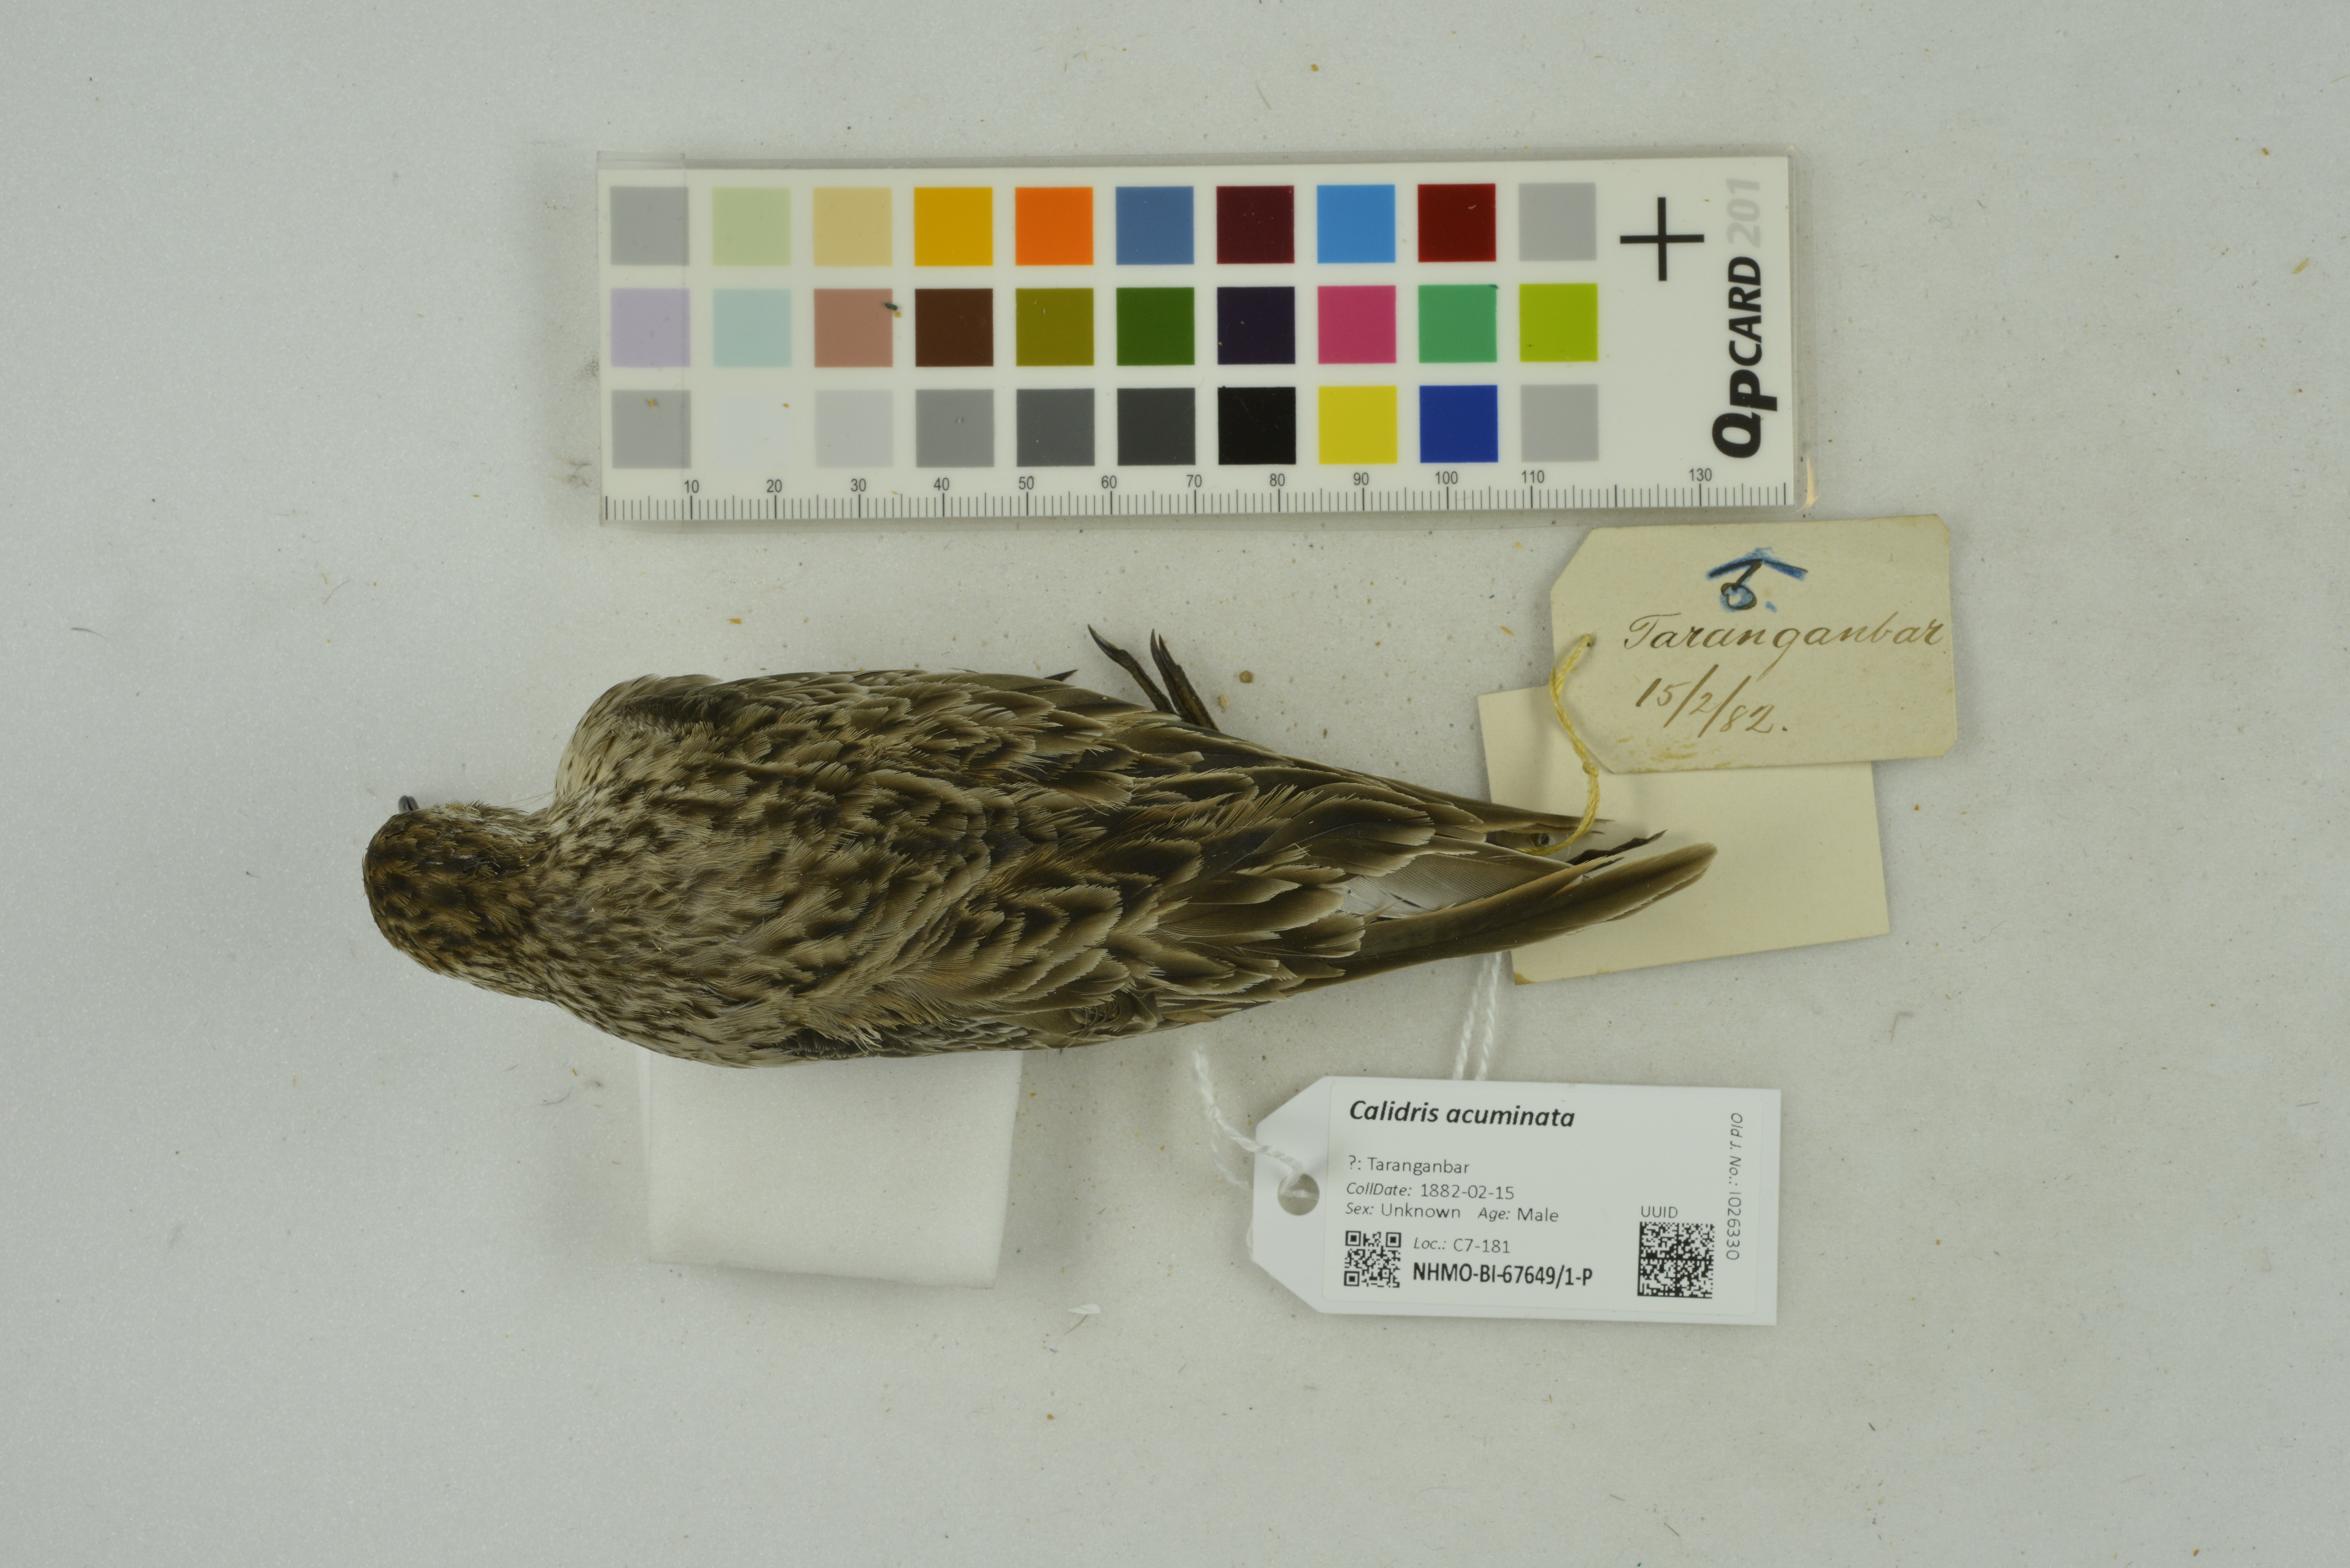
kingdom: Animalia
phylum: Chordata
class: Aves
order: Charadriiformes
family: Scolopacidae
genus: Calidris
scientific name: Calidris acuminata
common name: Sharp-tailed sandpiper
